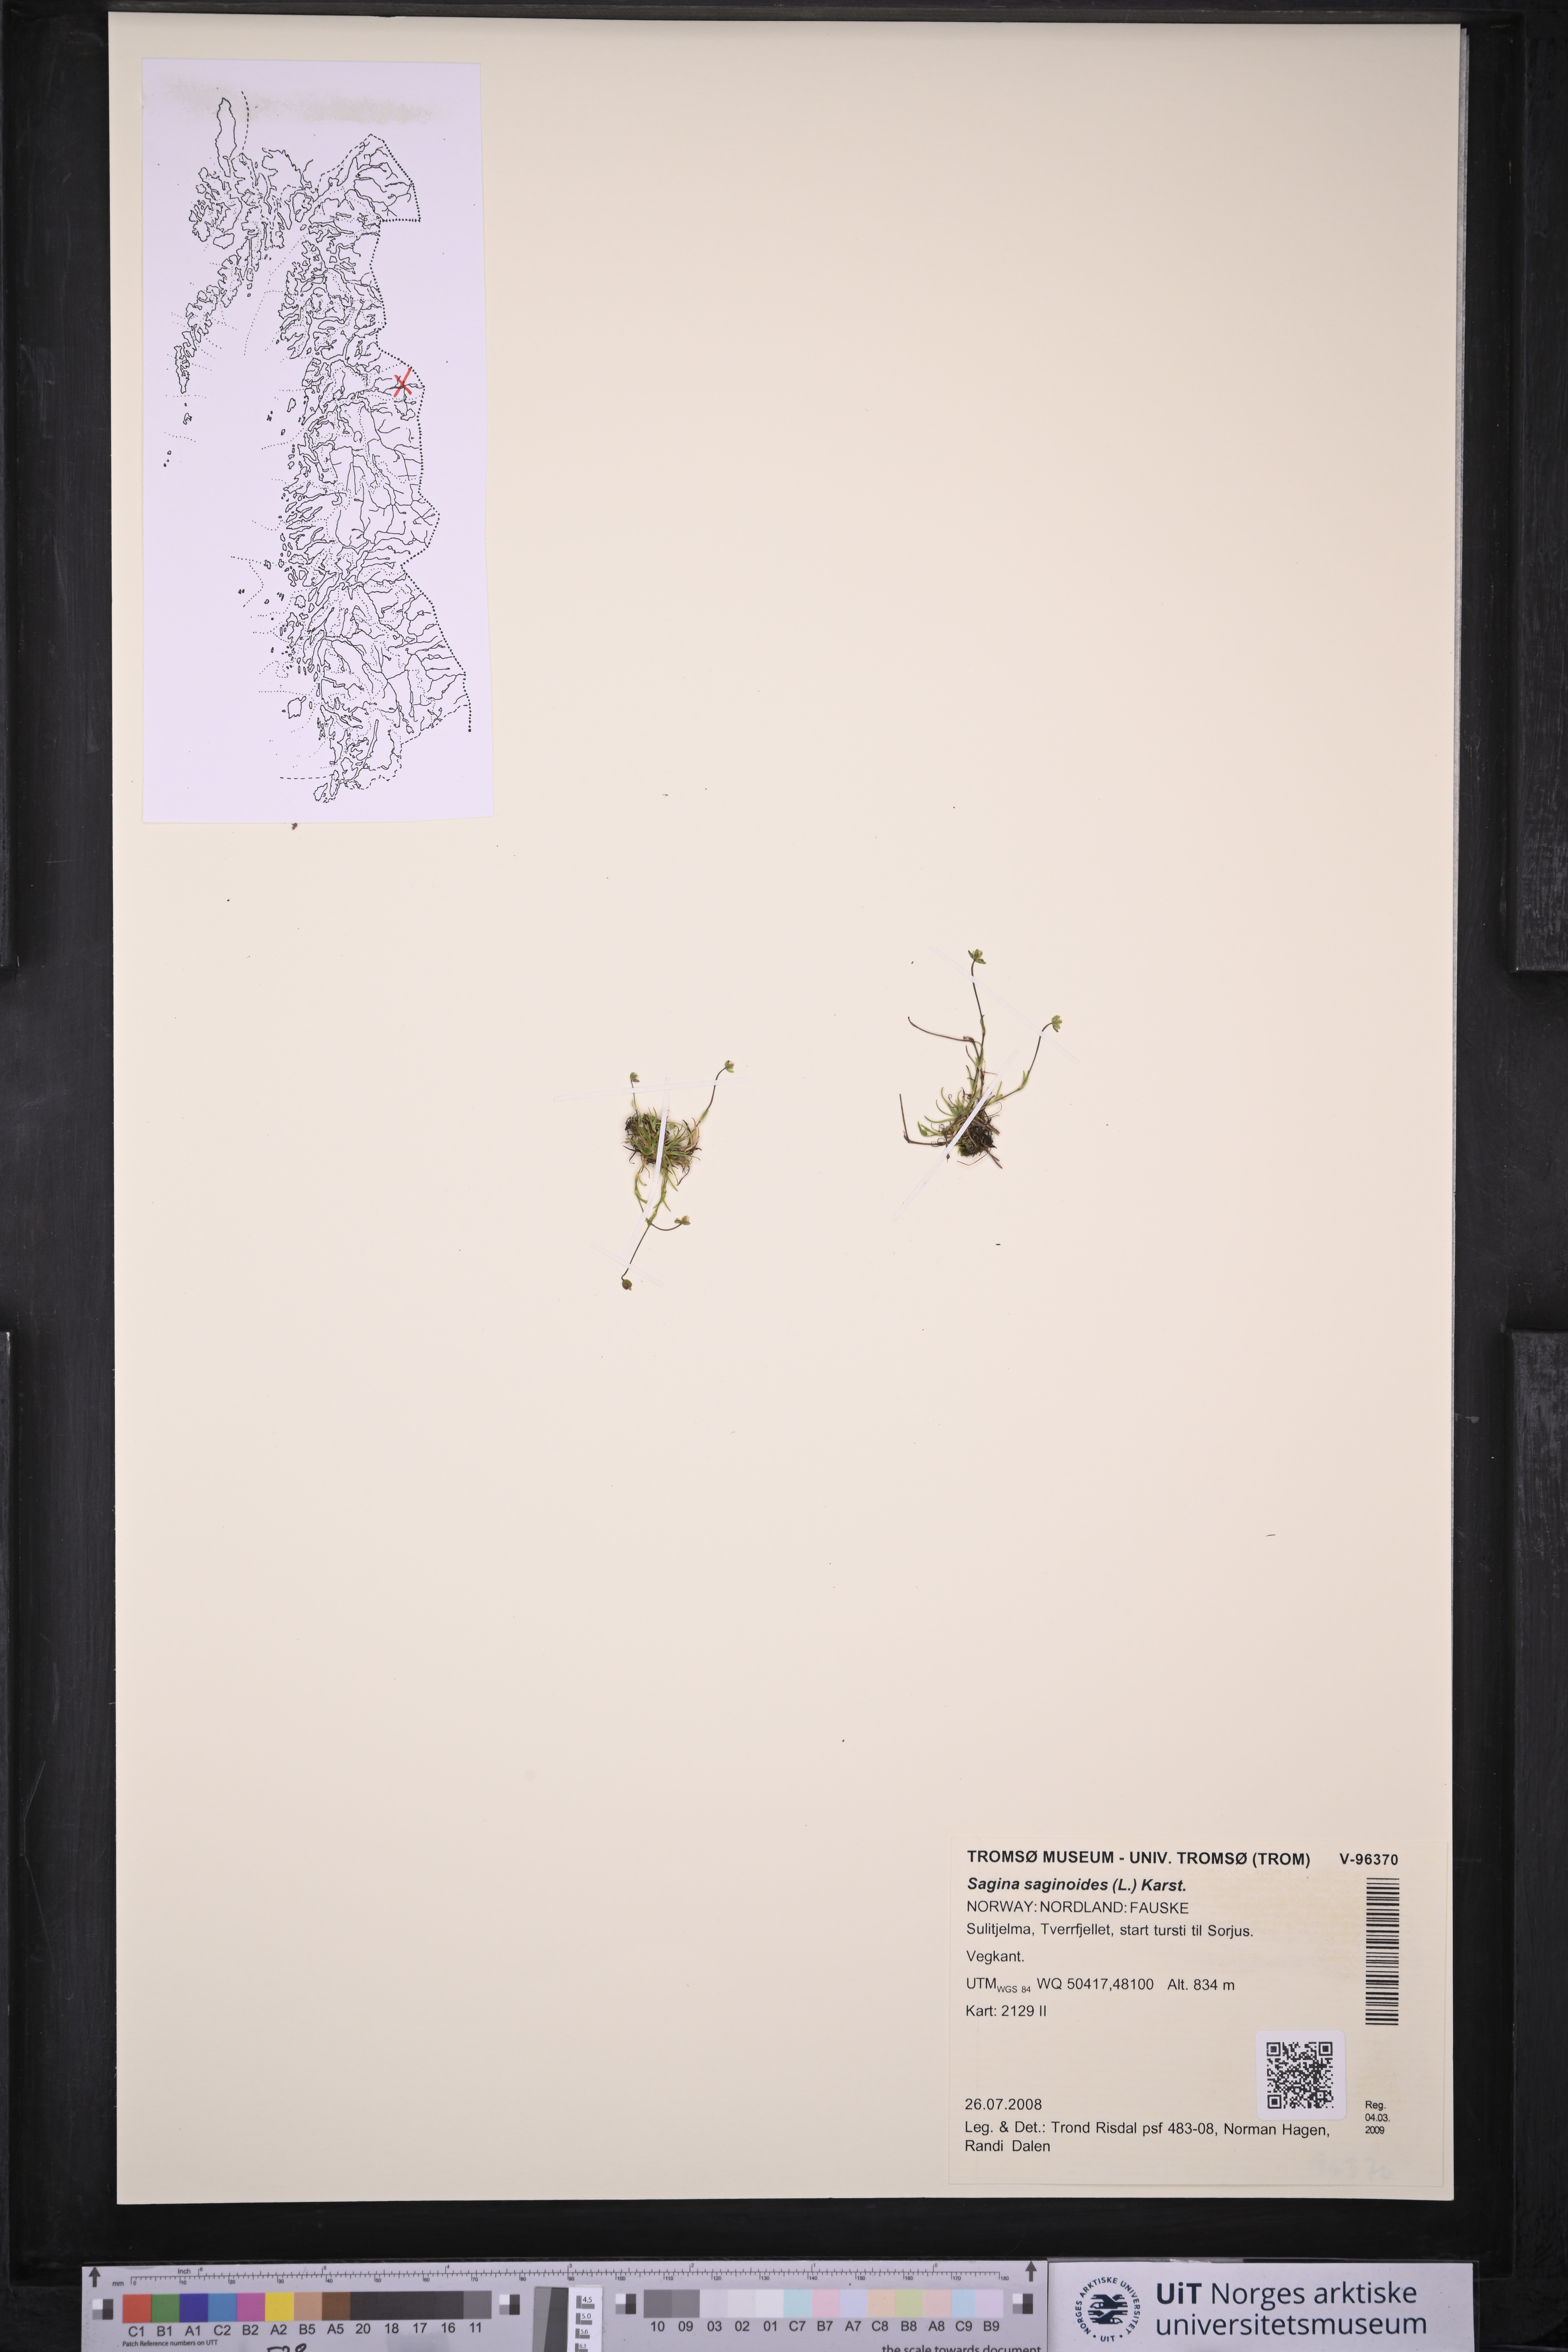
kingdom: Plantae
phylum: Tracheophyta
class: Magnoliopsida
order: Caryophyllales
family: Caryophyllaceae
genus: Sagina
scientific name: Sagina saginoides
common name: Alpine pearlwort
